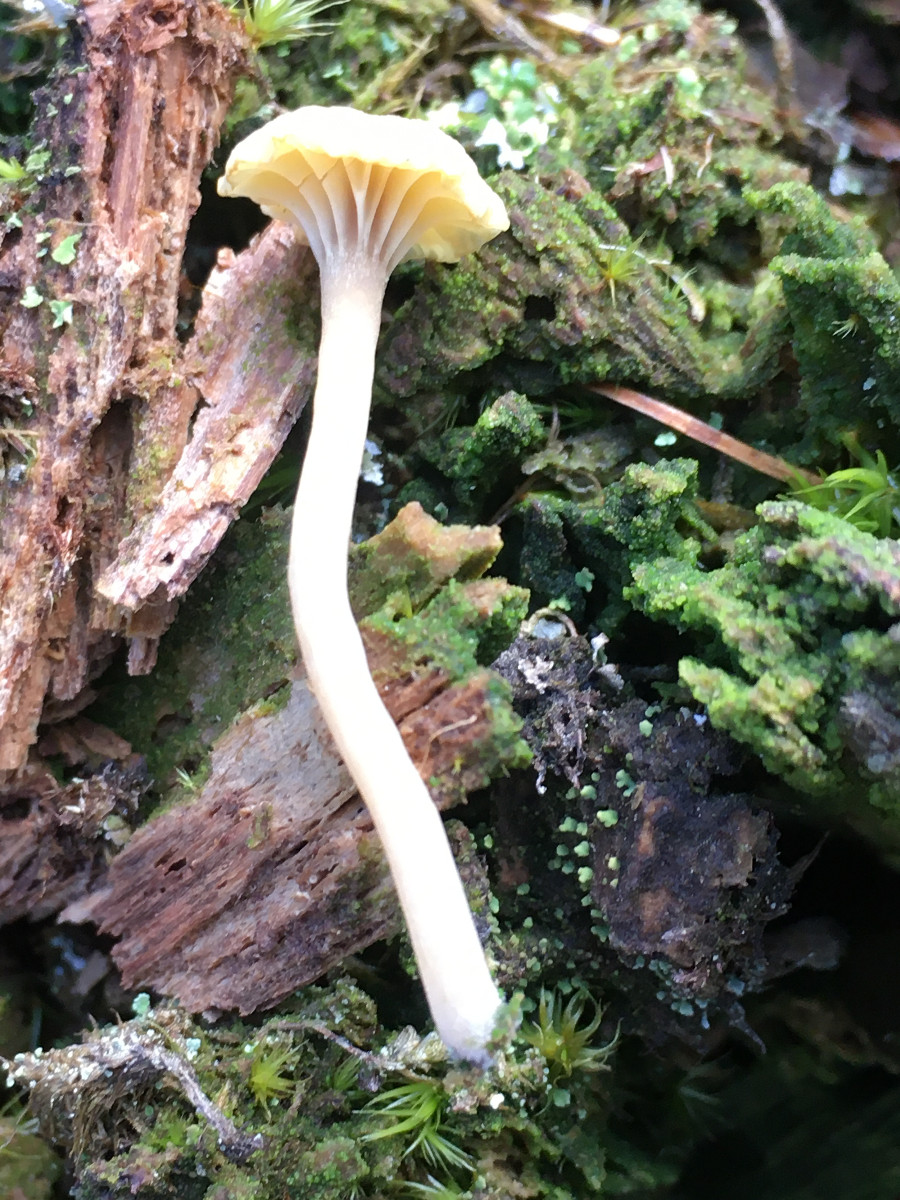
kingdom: Fungi
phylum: Basidiomycota
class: Agaricomycetes
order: Agaricales
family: Hygrophoraceae
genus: Lichenomphalia
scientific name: Lichenomphalia umbellifera
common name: tørve-lavhat
